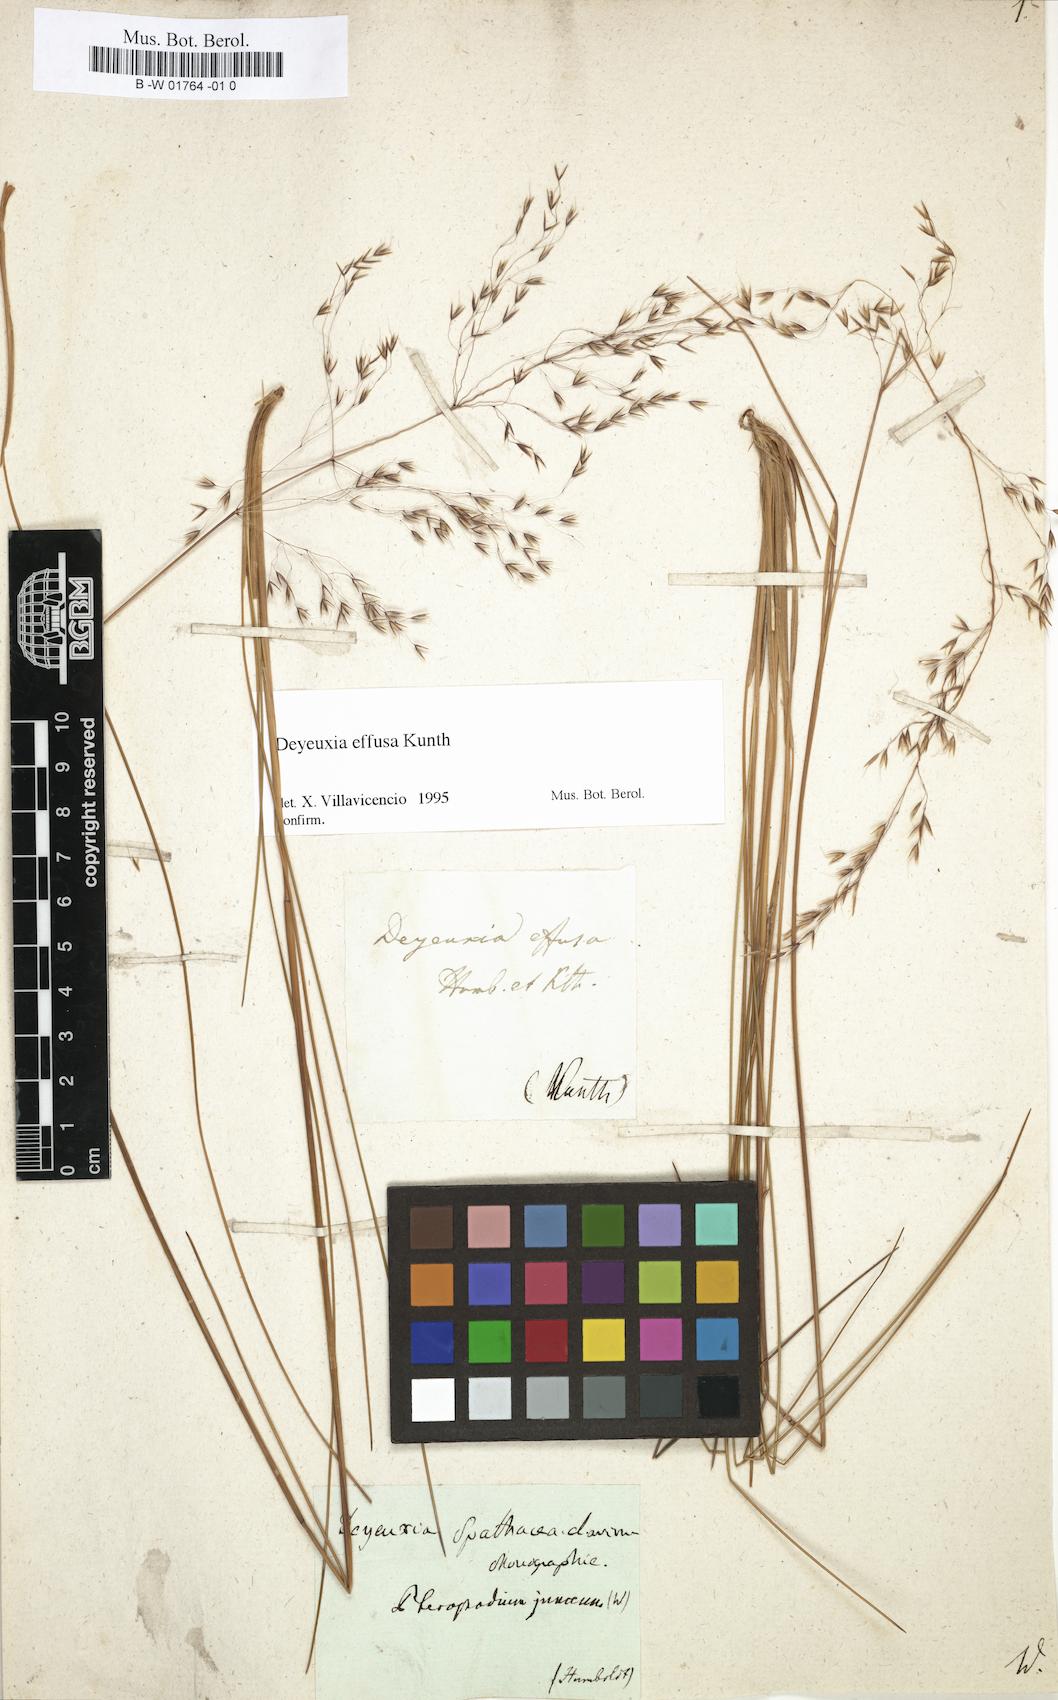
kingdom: Plantae
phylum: Tracheophyta
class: Liliopsida
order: Poales
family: Poaceae
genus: Paramochloa
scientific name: Paramochloa effusa
